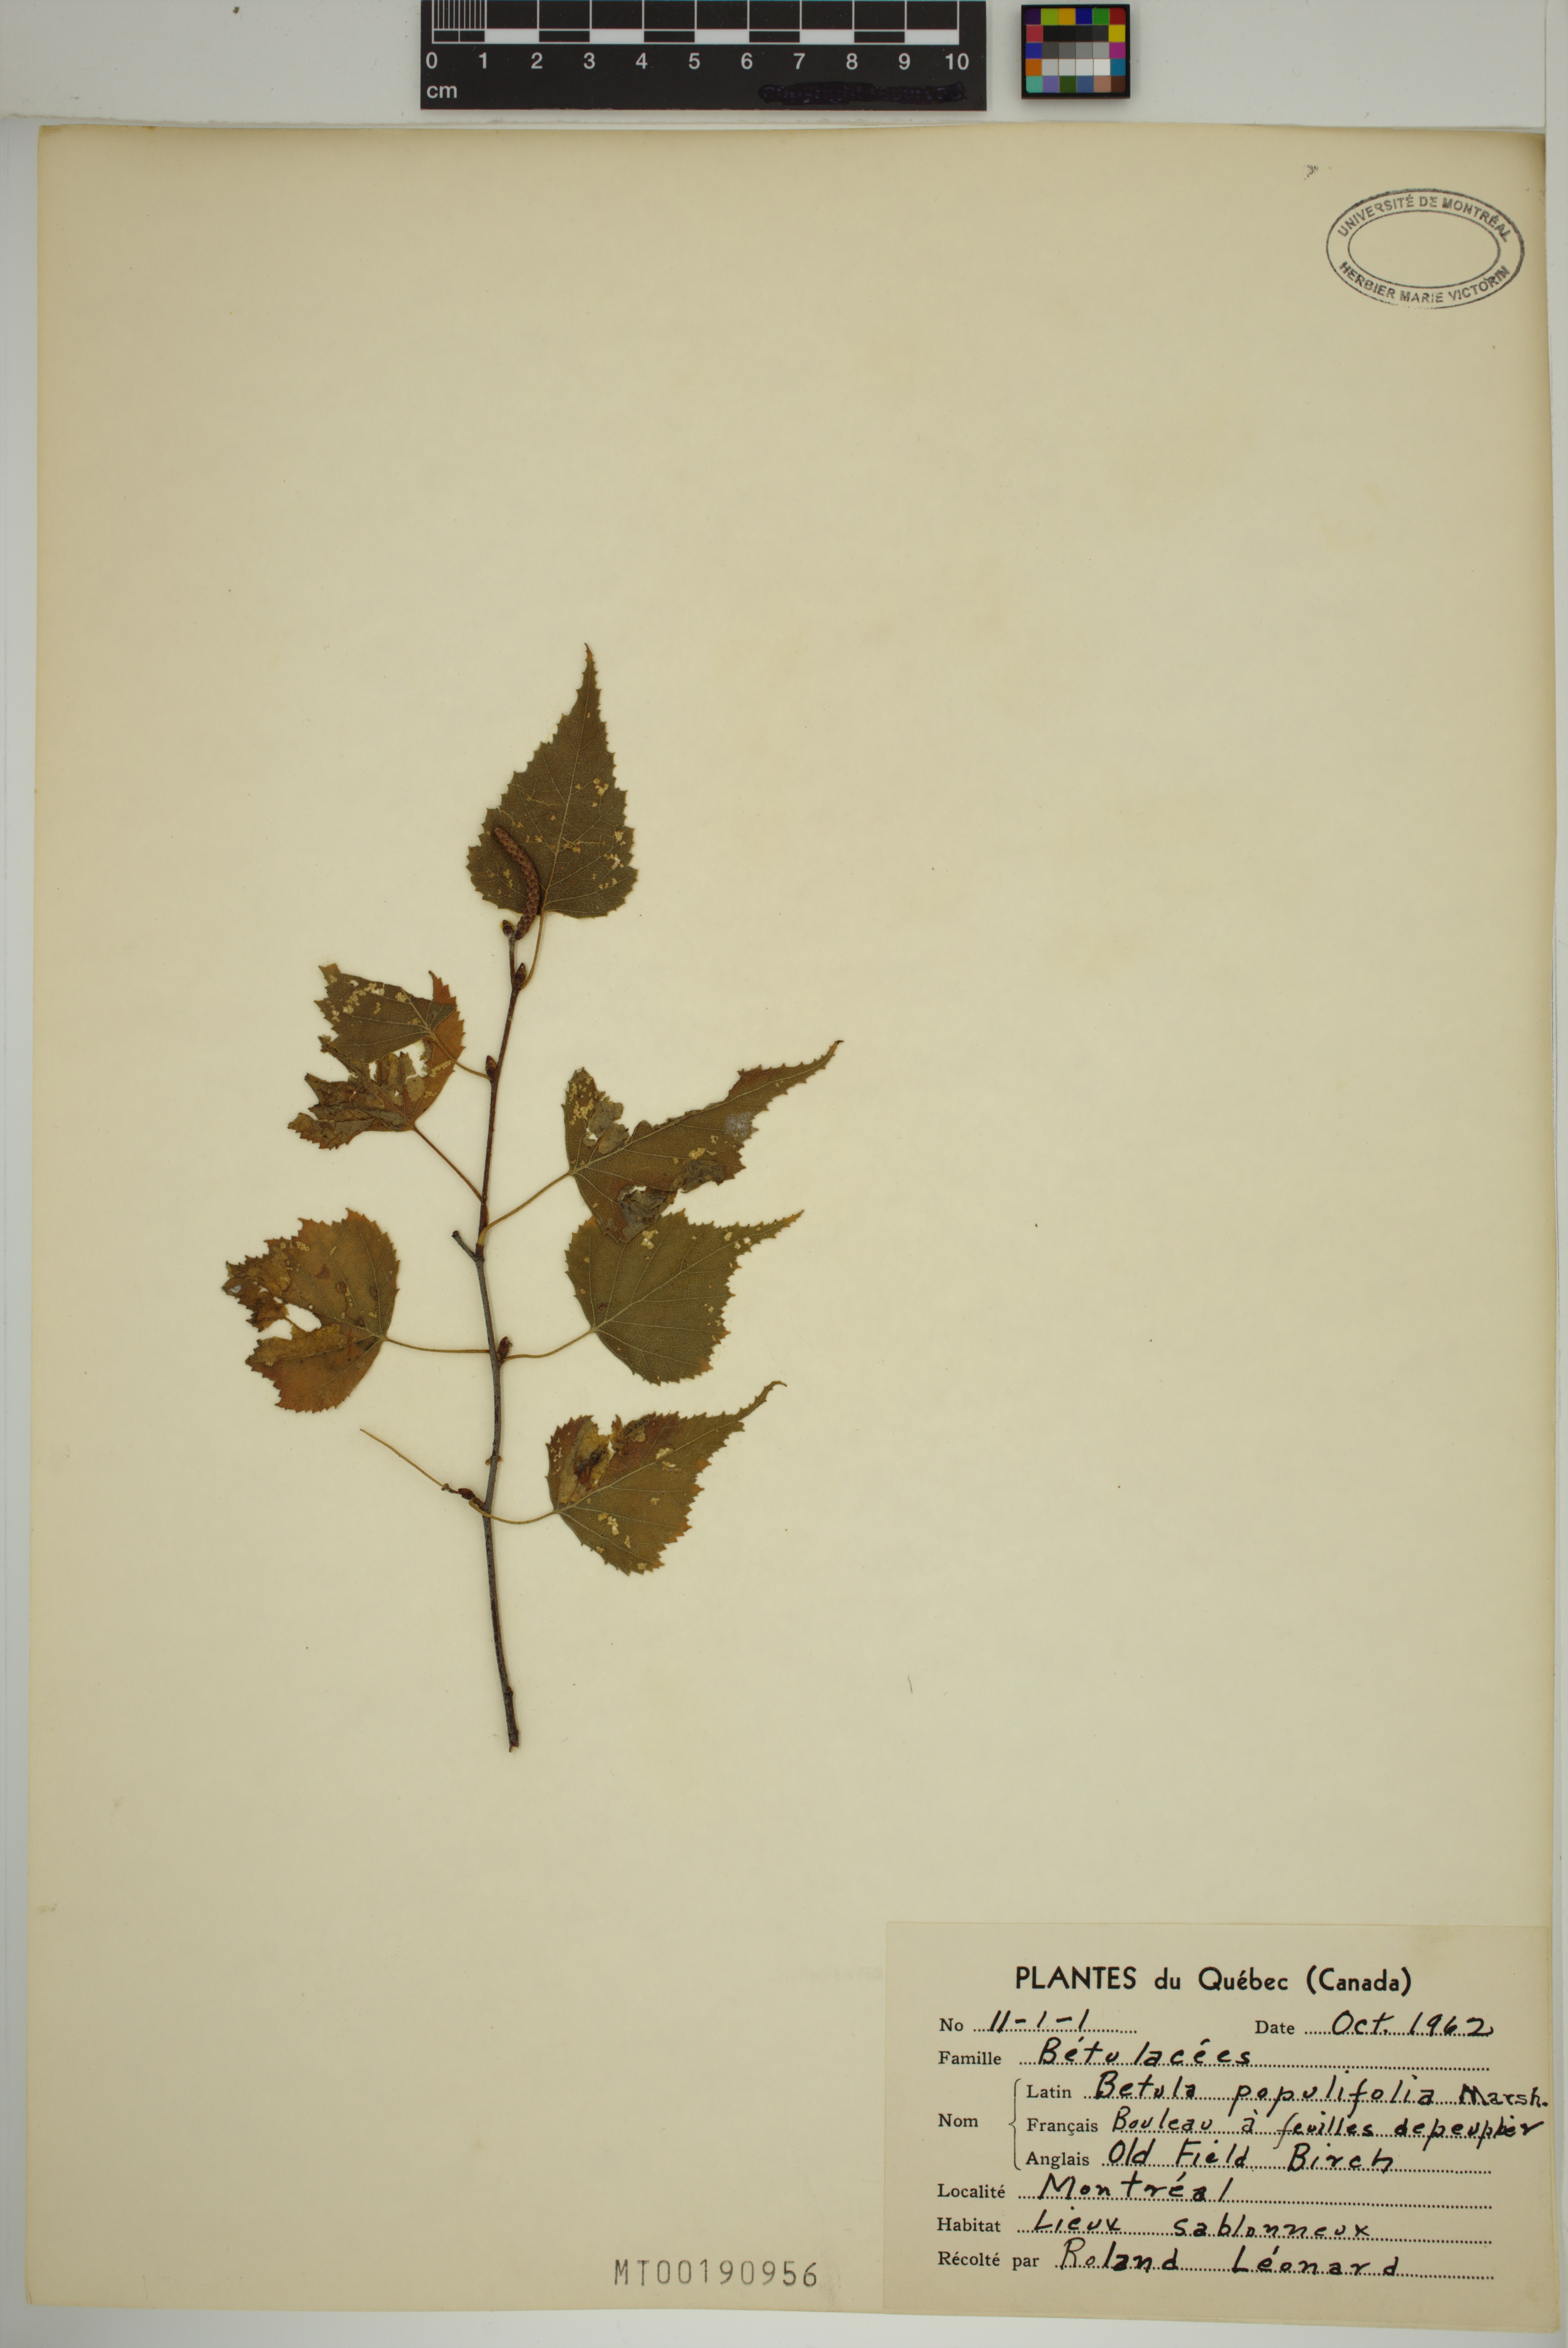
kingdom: Plantae
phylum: Tracheophyta
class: Magnoliopsida
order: Fagales
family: Betulaceae
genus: Betula
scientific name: Betula populifolia
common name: Fire birch
